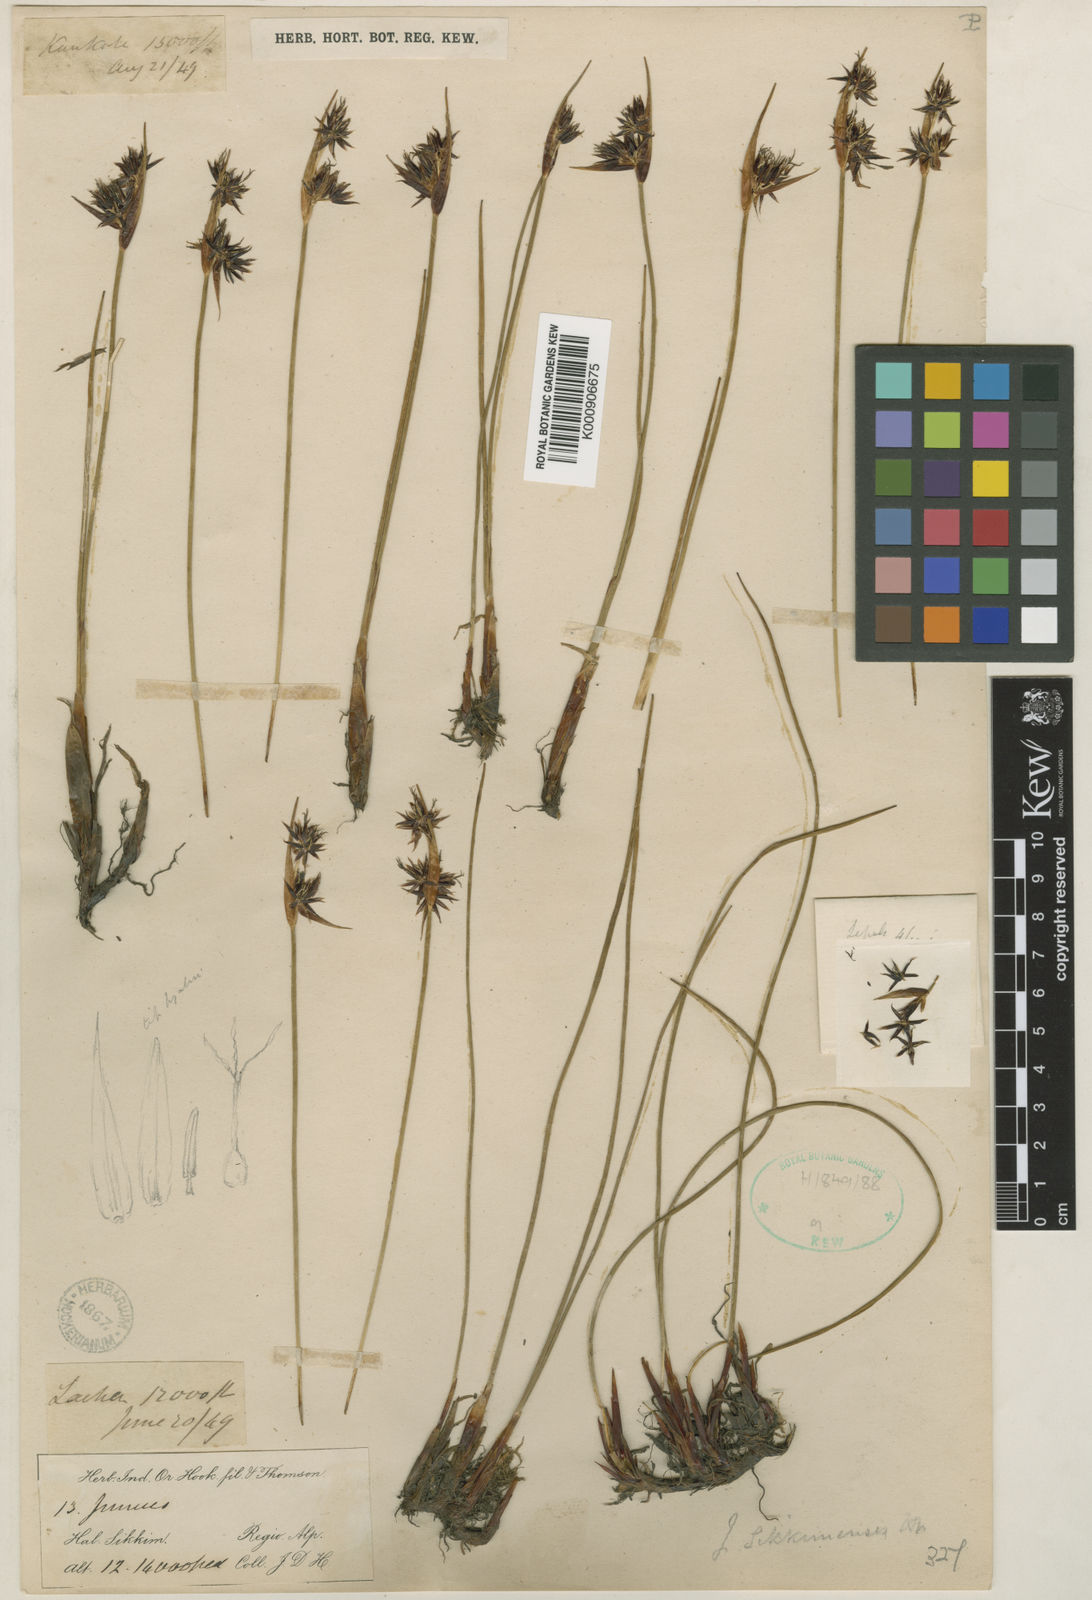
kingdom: Plantae
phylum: Tracheophyta
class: Liliopsida
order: Poales
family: Juncaceae
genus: Juncus
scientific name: Juncus sikkimensis
